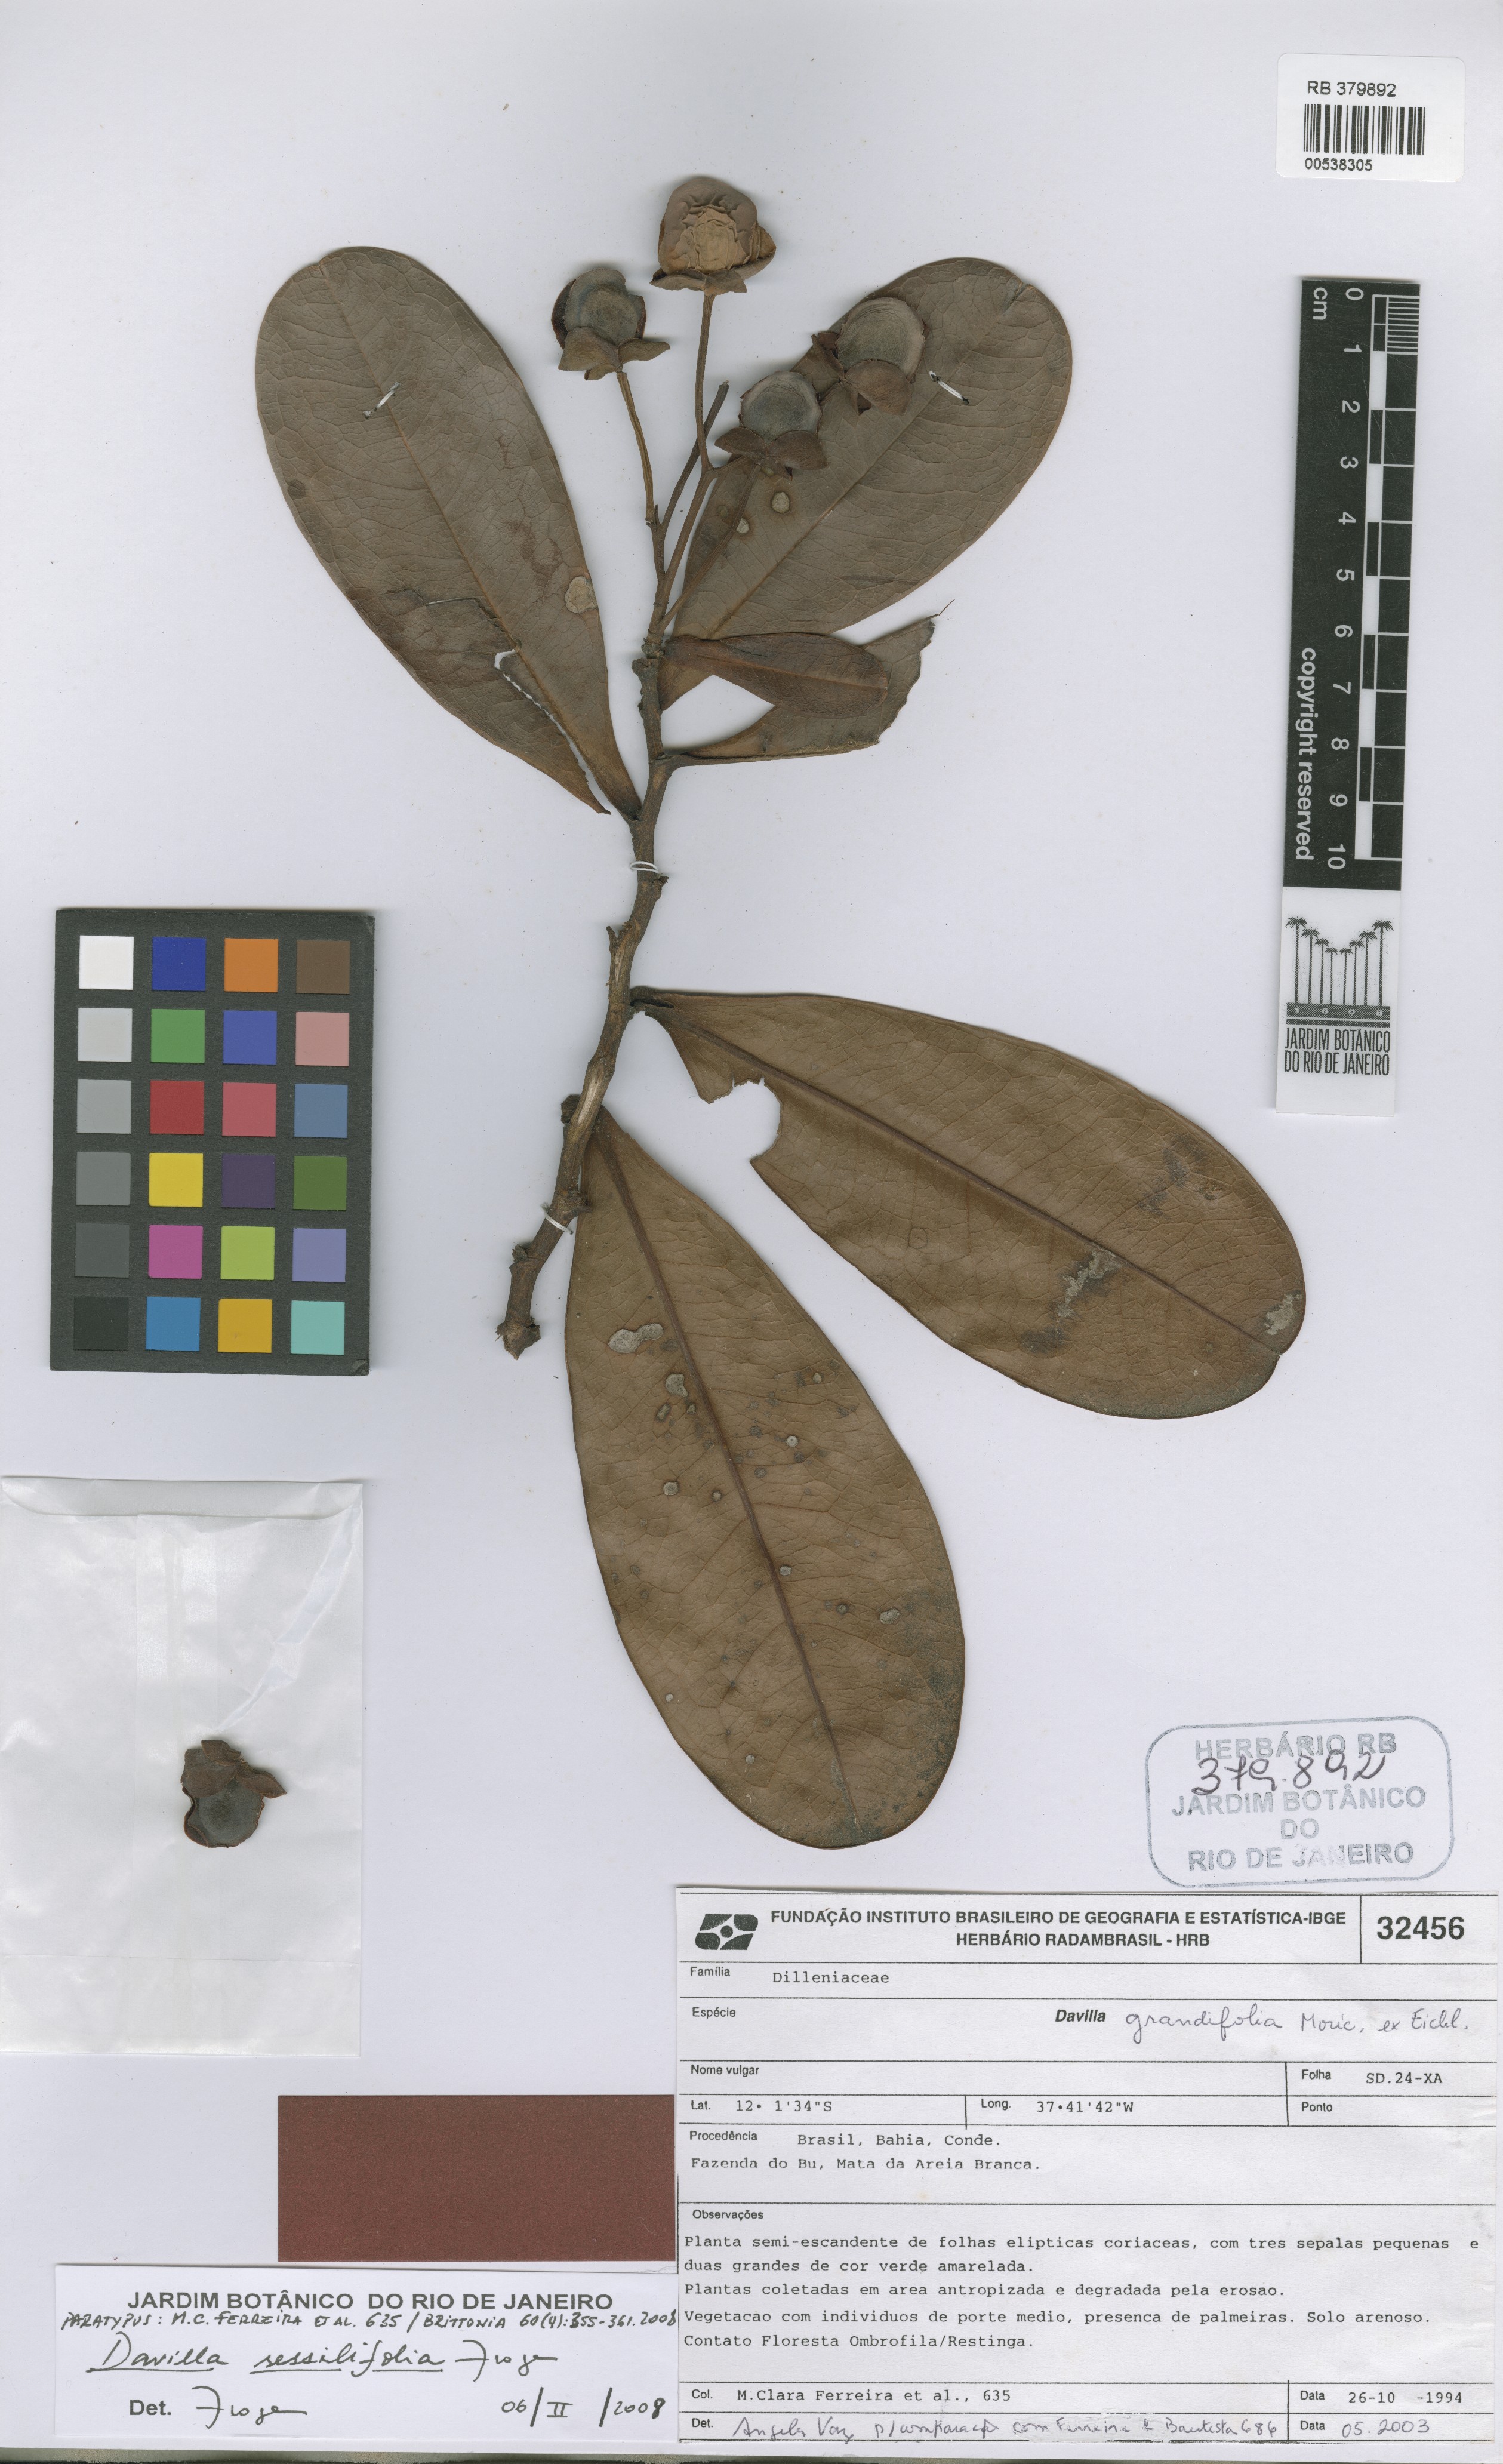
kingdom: Plantae
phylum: Tracheophyta
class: Magnoliopsida
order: Dilleniales
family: Dilleniaceae
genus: Davilla
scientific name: Davilla sessilifolia
